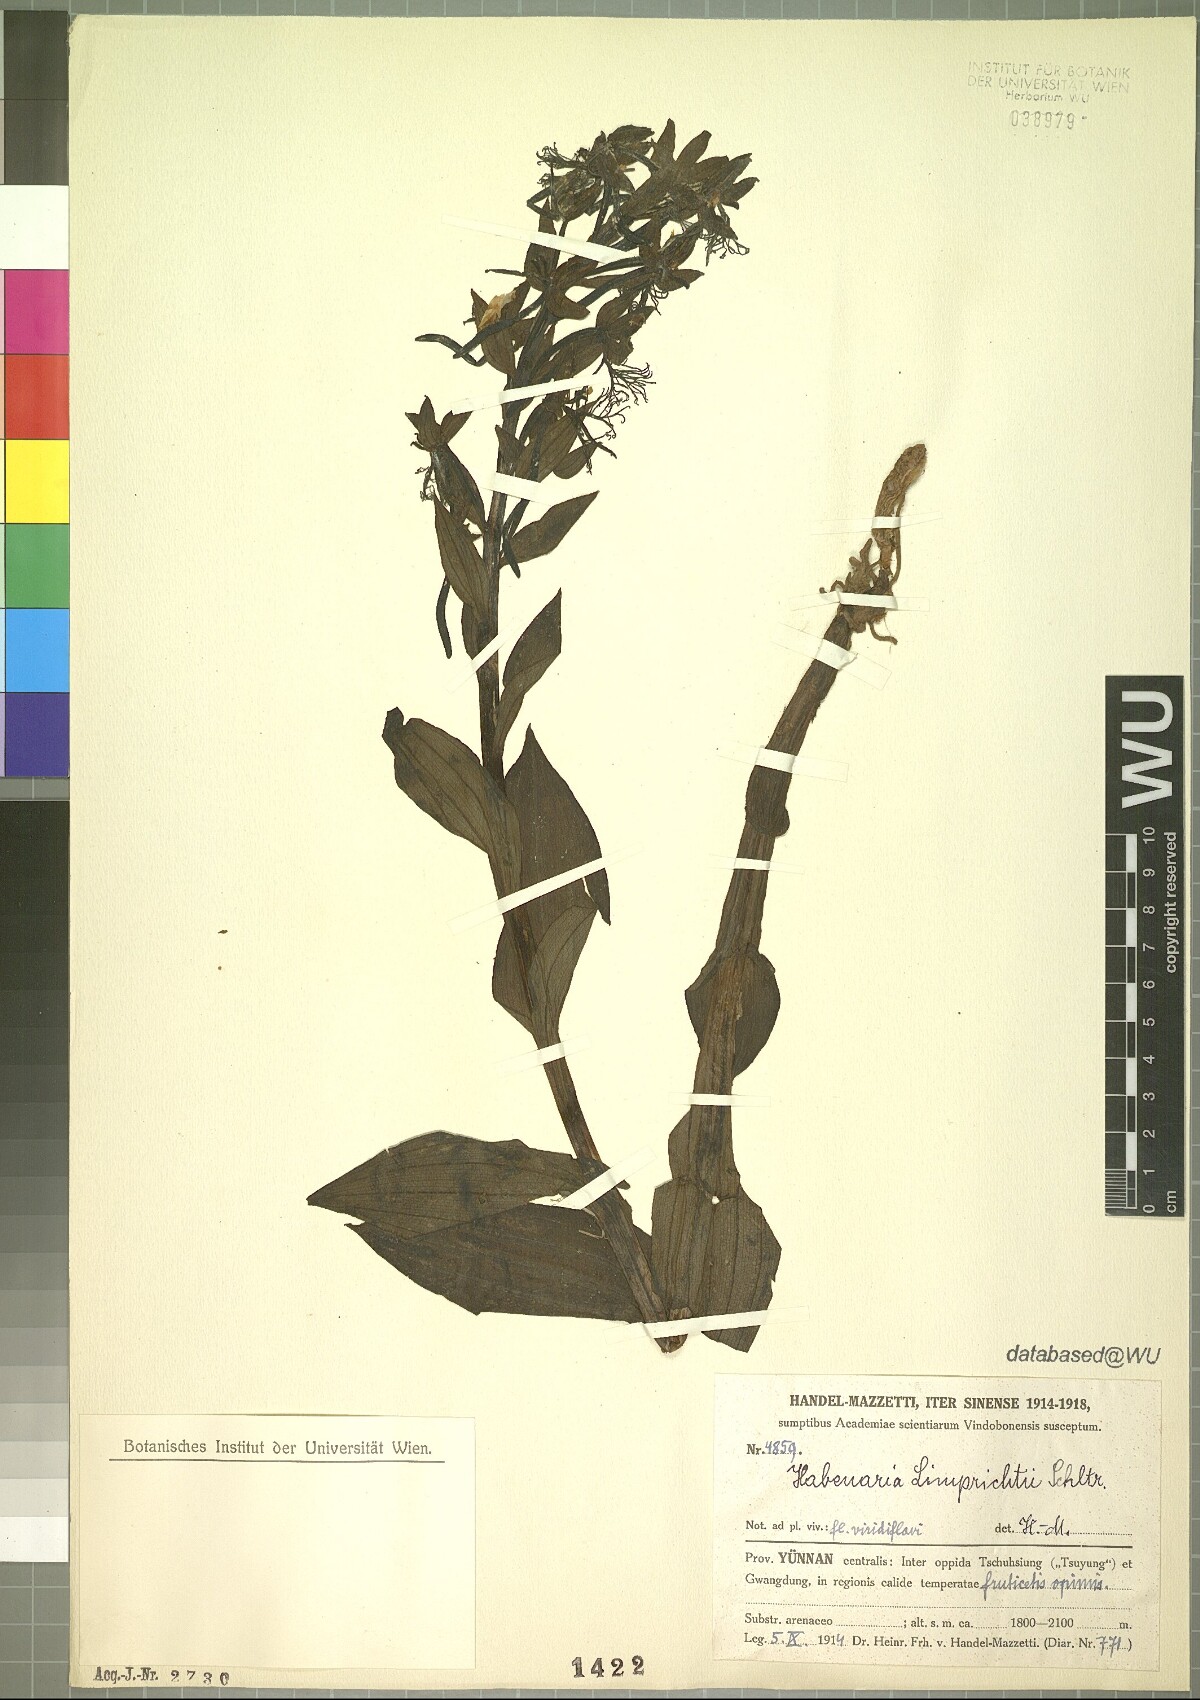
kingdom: Plantae
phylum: Tracheophyta
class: Liliopsida
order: Asparagales
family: Orchidaceae
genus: Habenaria
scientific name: Habenaria limprichtii
